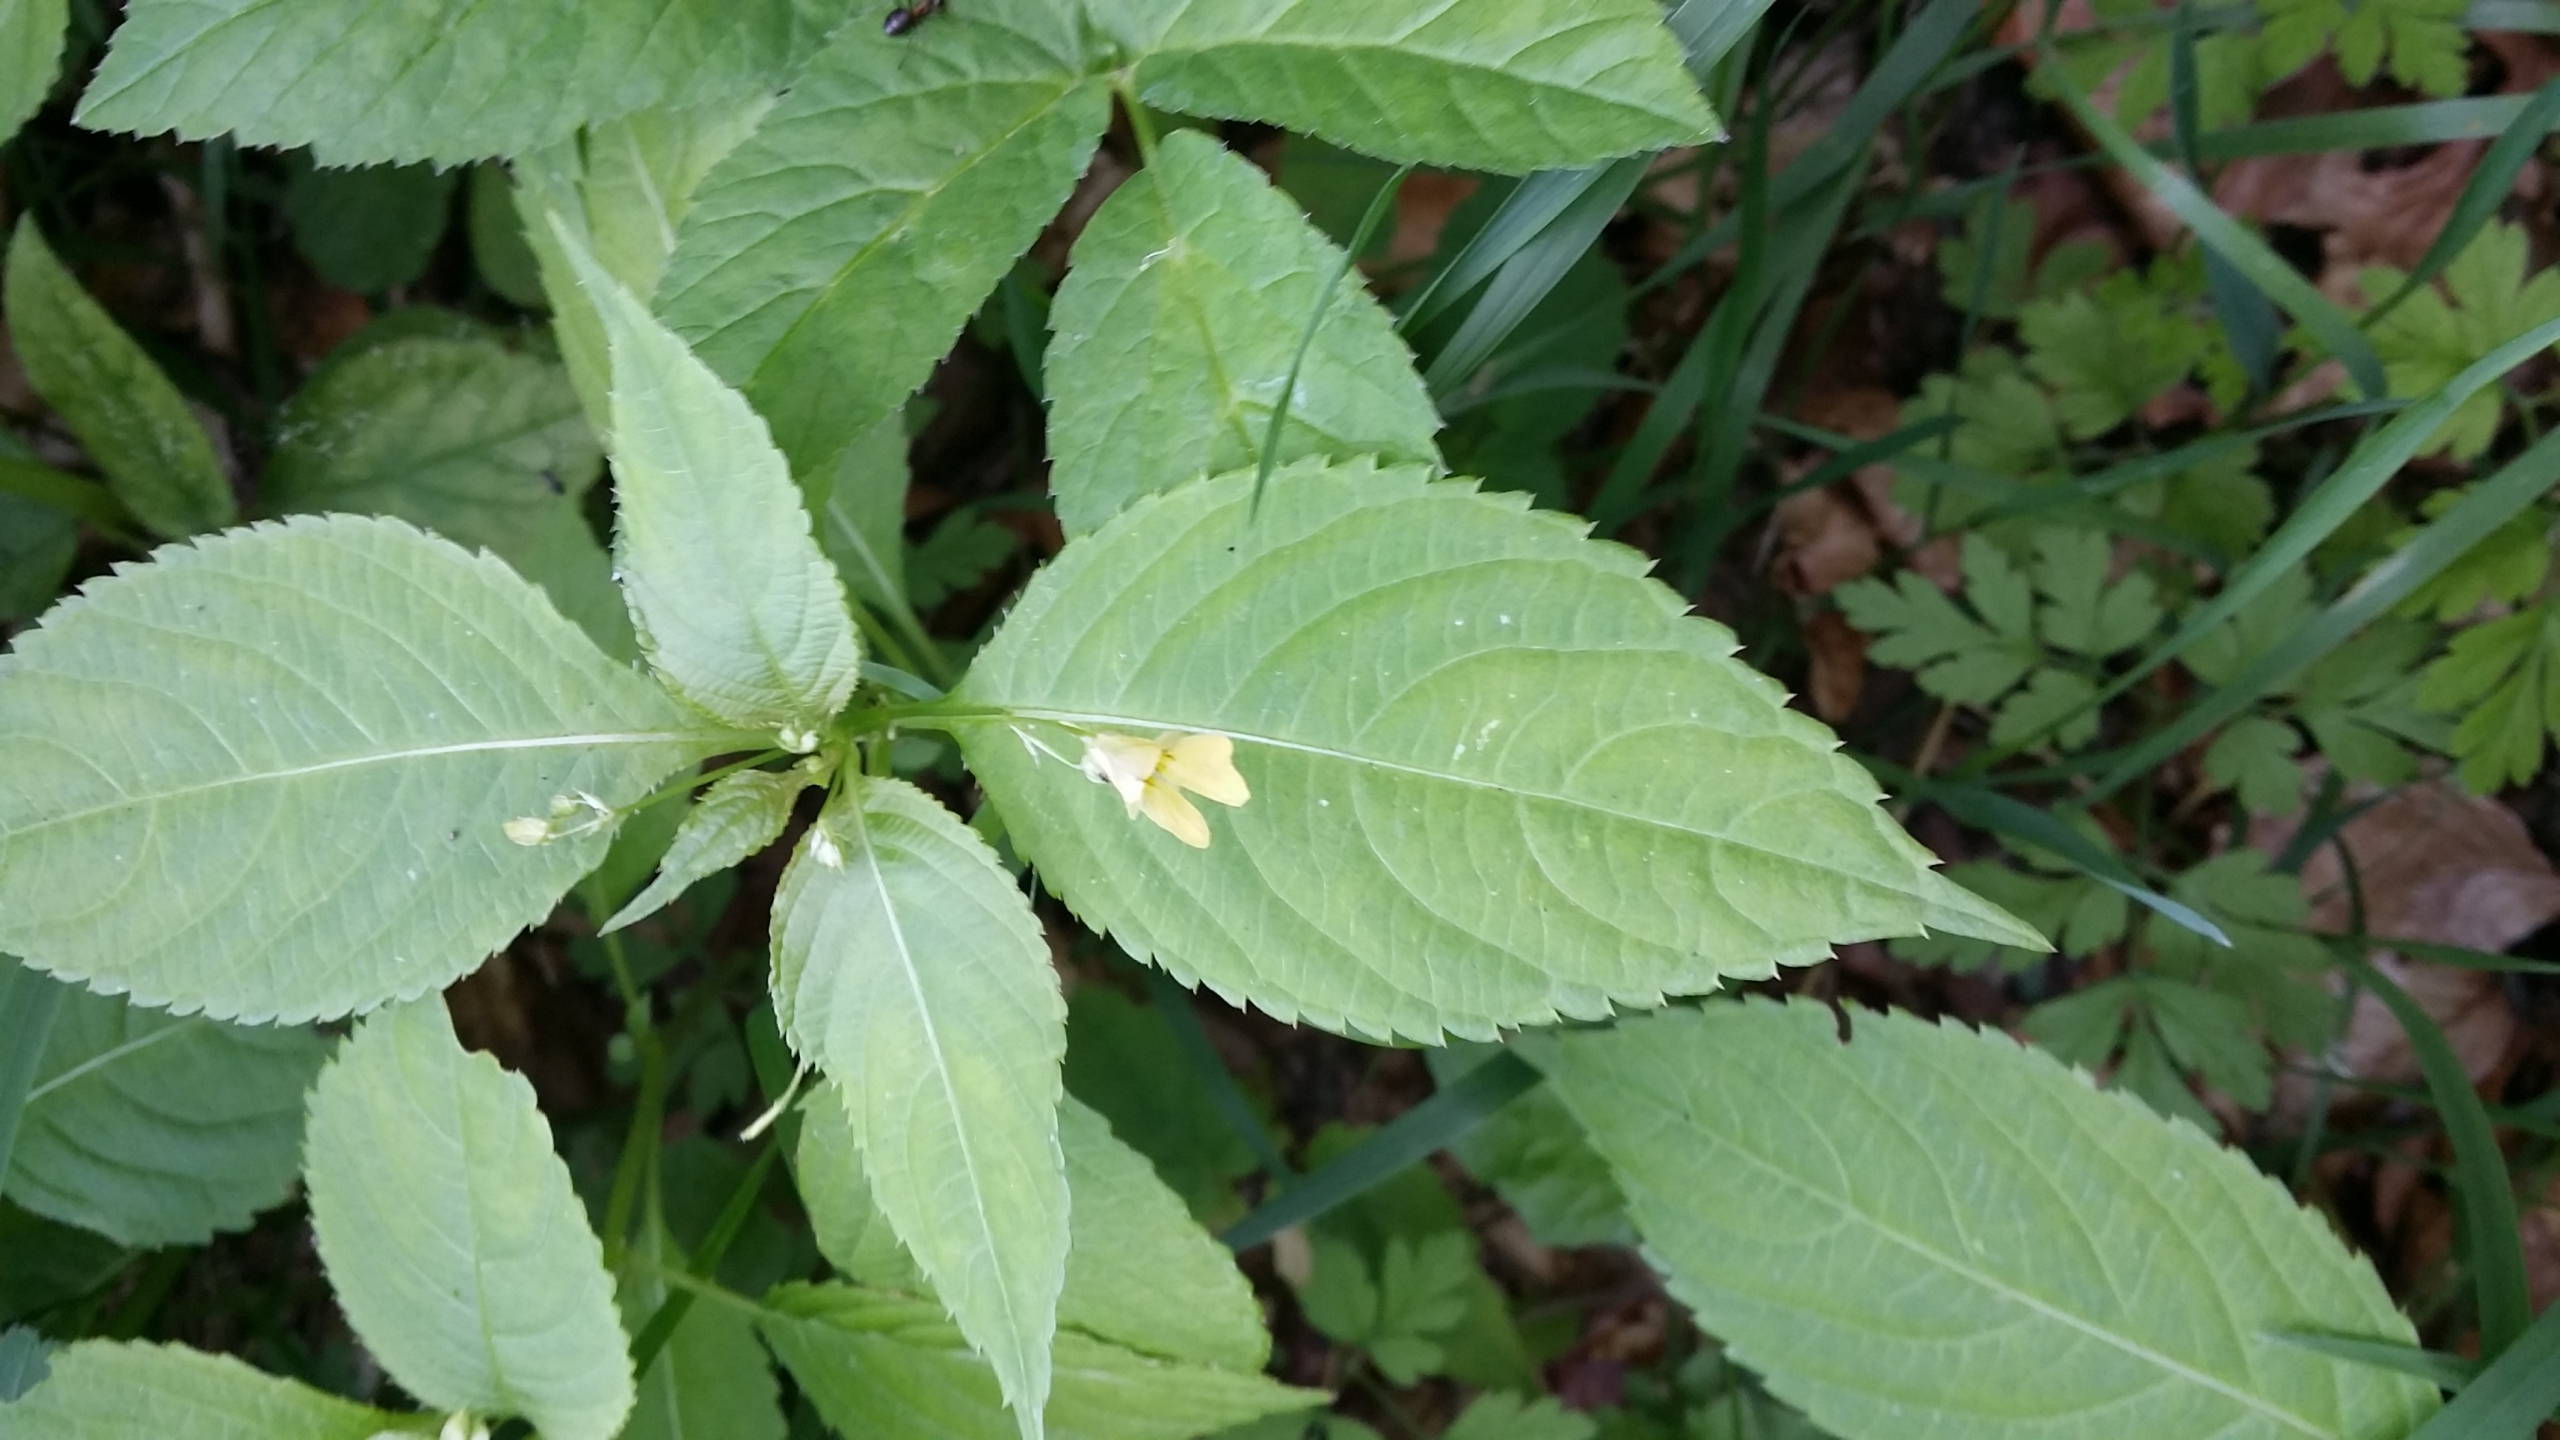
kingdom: Plantae
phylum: Tracheophyta
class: Magnoliopsida
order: Ericales
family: Balsaminaceae
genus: Impatiens
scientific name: Impatiens parviflora
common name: Småblomstret balsamin
